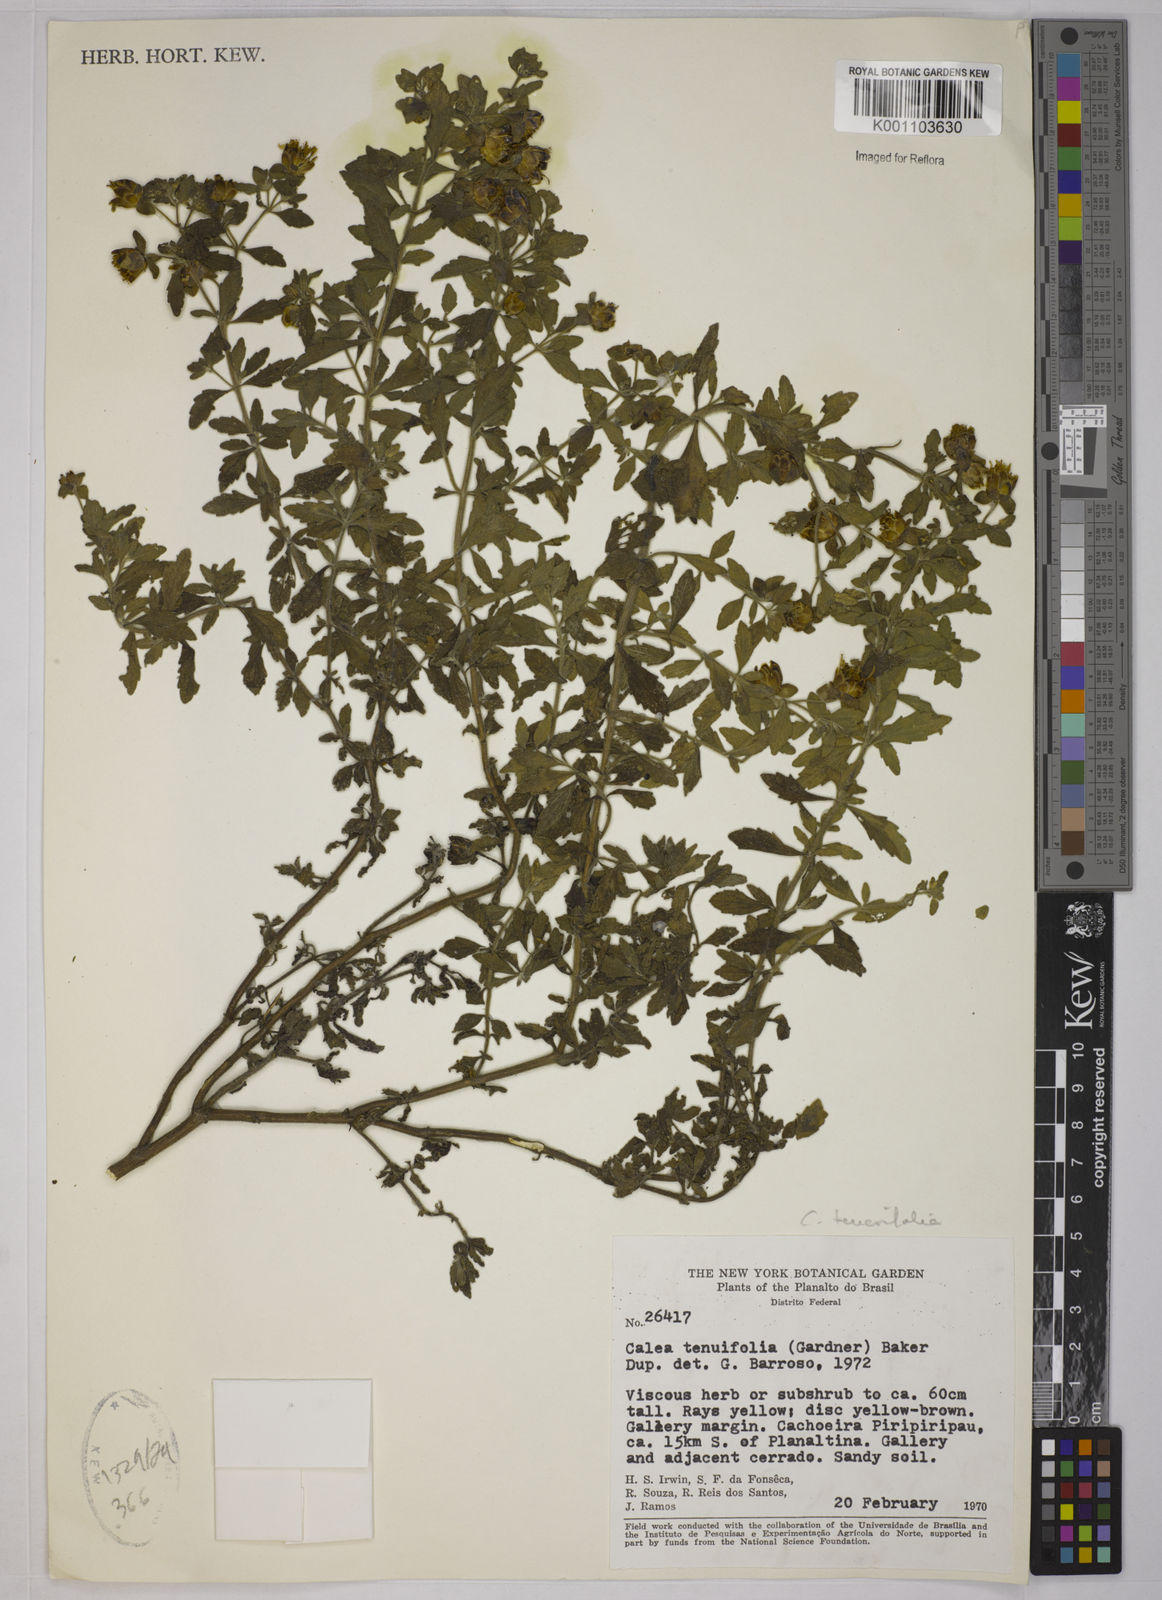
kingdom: Plantae
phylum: Tracheophyta
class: Magnoliopsida
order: Asterales
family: Asteraceae
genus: Calea
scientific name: Calea teucriifolia
